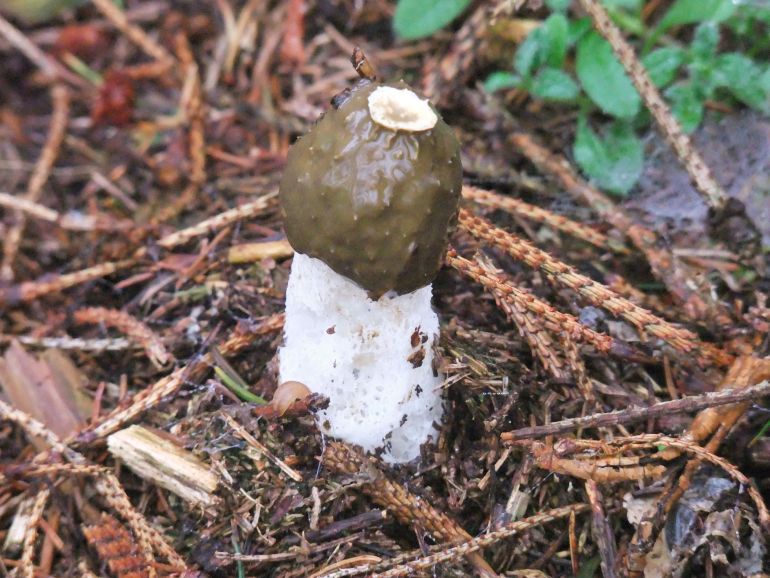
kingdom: Fungi
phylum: Basidiomycota
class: Agaricomycetes
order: Phallales
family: Phallaceae
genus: Phallus
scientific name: Phallus impudicus
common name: almindelig stinksvamp
